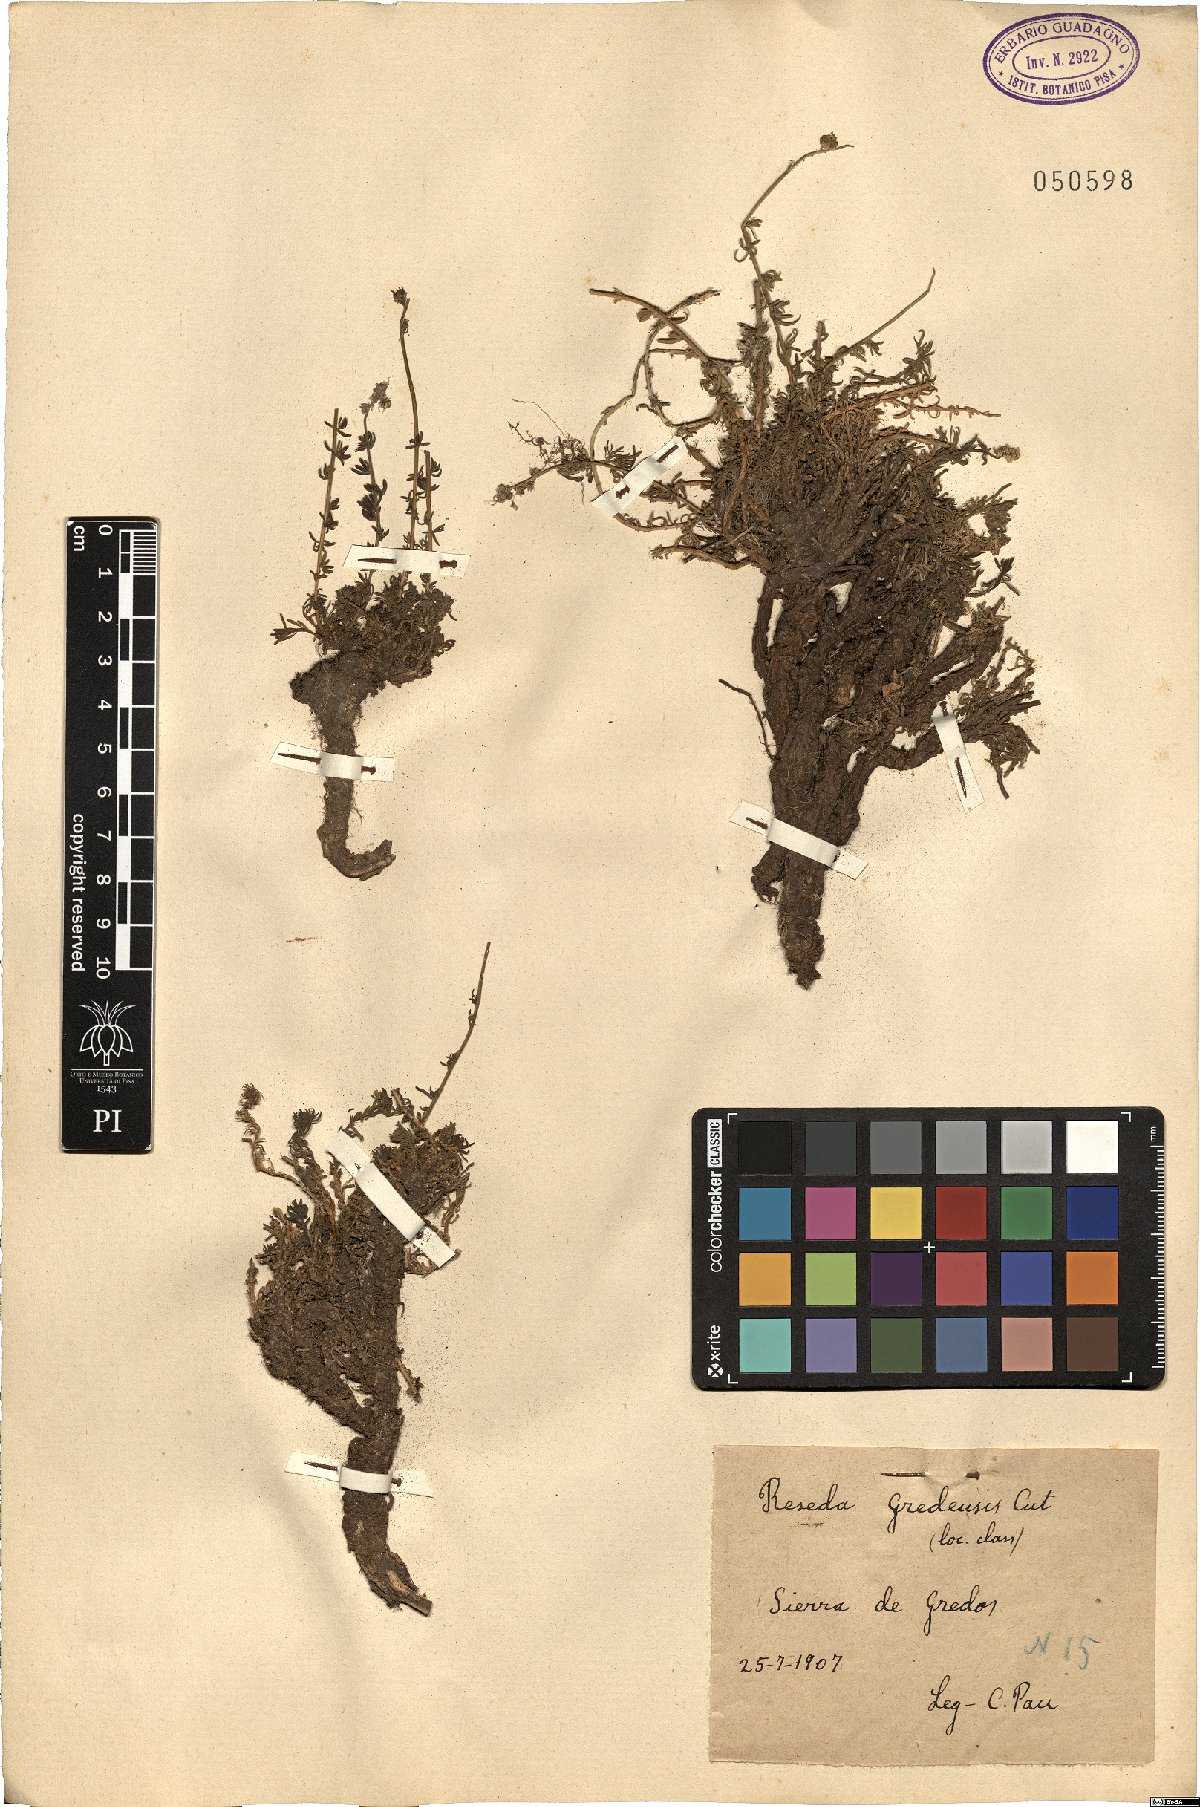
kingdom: Plantae
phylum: Tracheophyta
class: Magnoliopsida
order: Brassicales
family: Resedaceae
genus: Reseda
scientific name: Reseda gredensis
